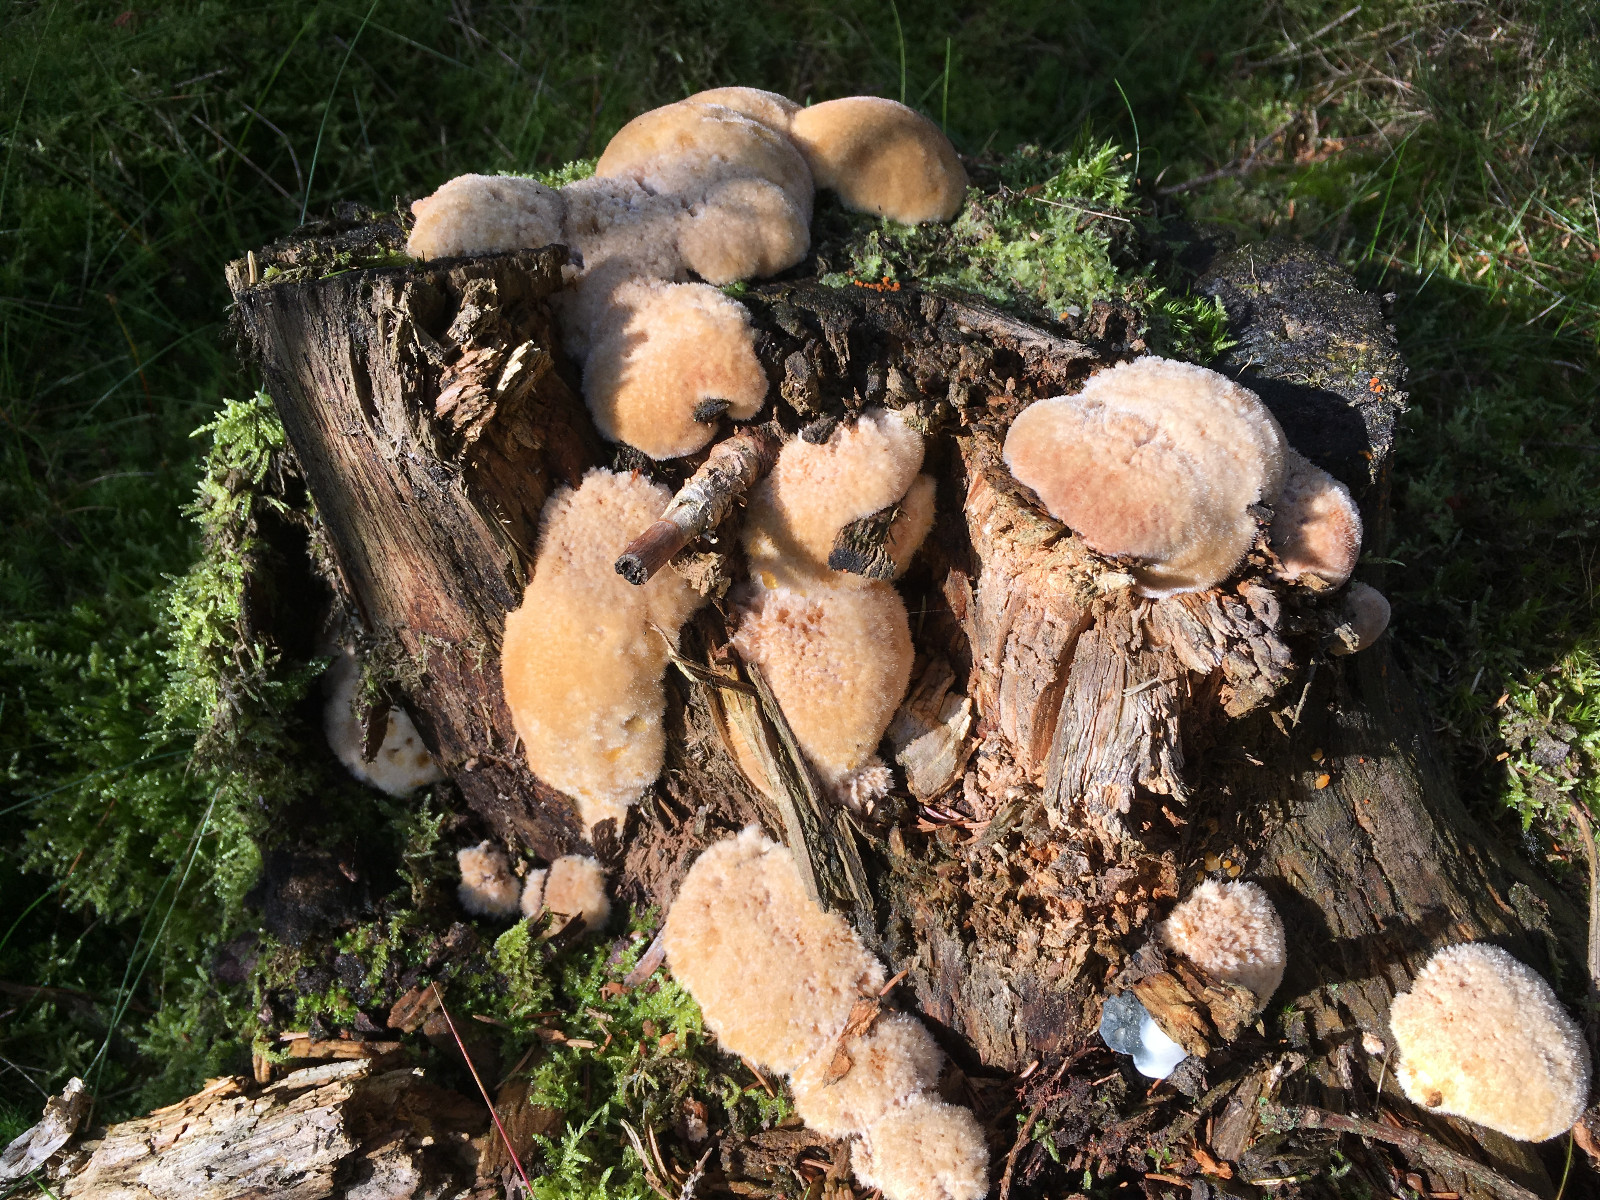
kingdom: Fungi
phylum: Basidiomycota
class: Agaricomycetes
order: Polyporales
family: Dacryobolaceae
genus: Postia
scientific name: Postia ptychogaster
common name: støvende kødporesvamp
